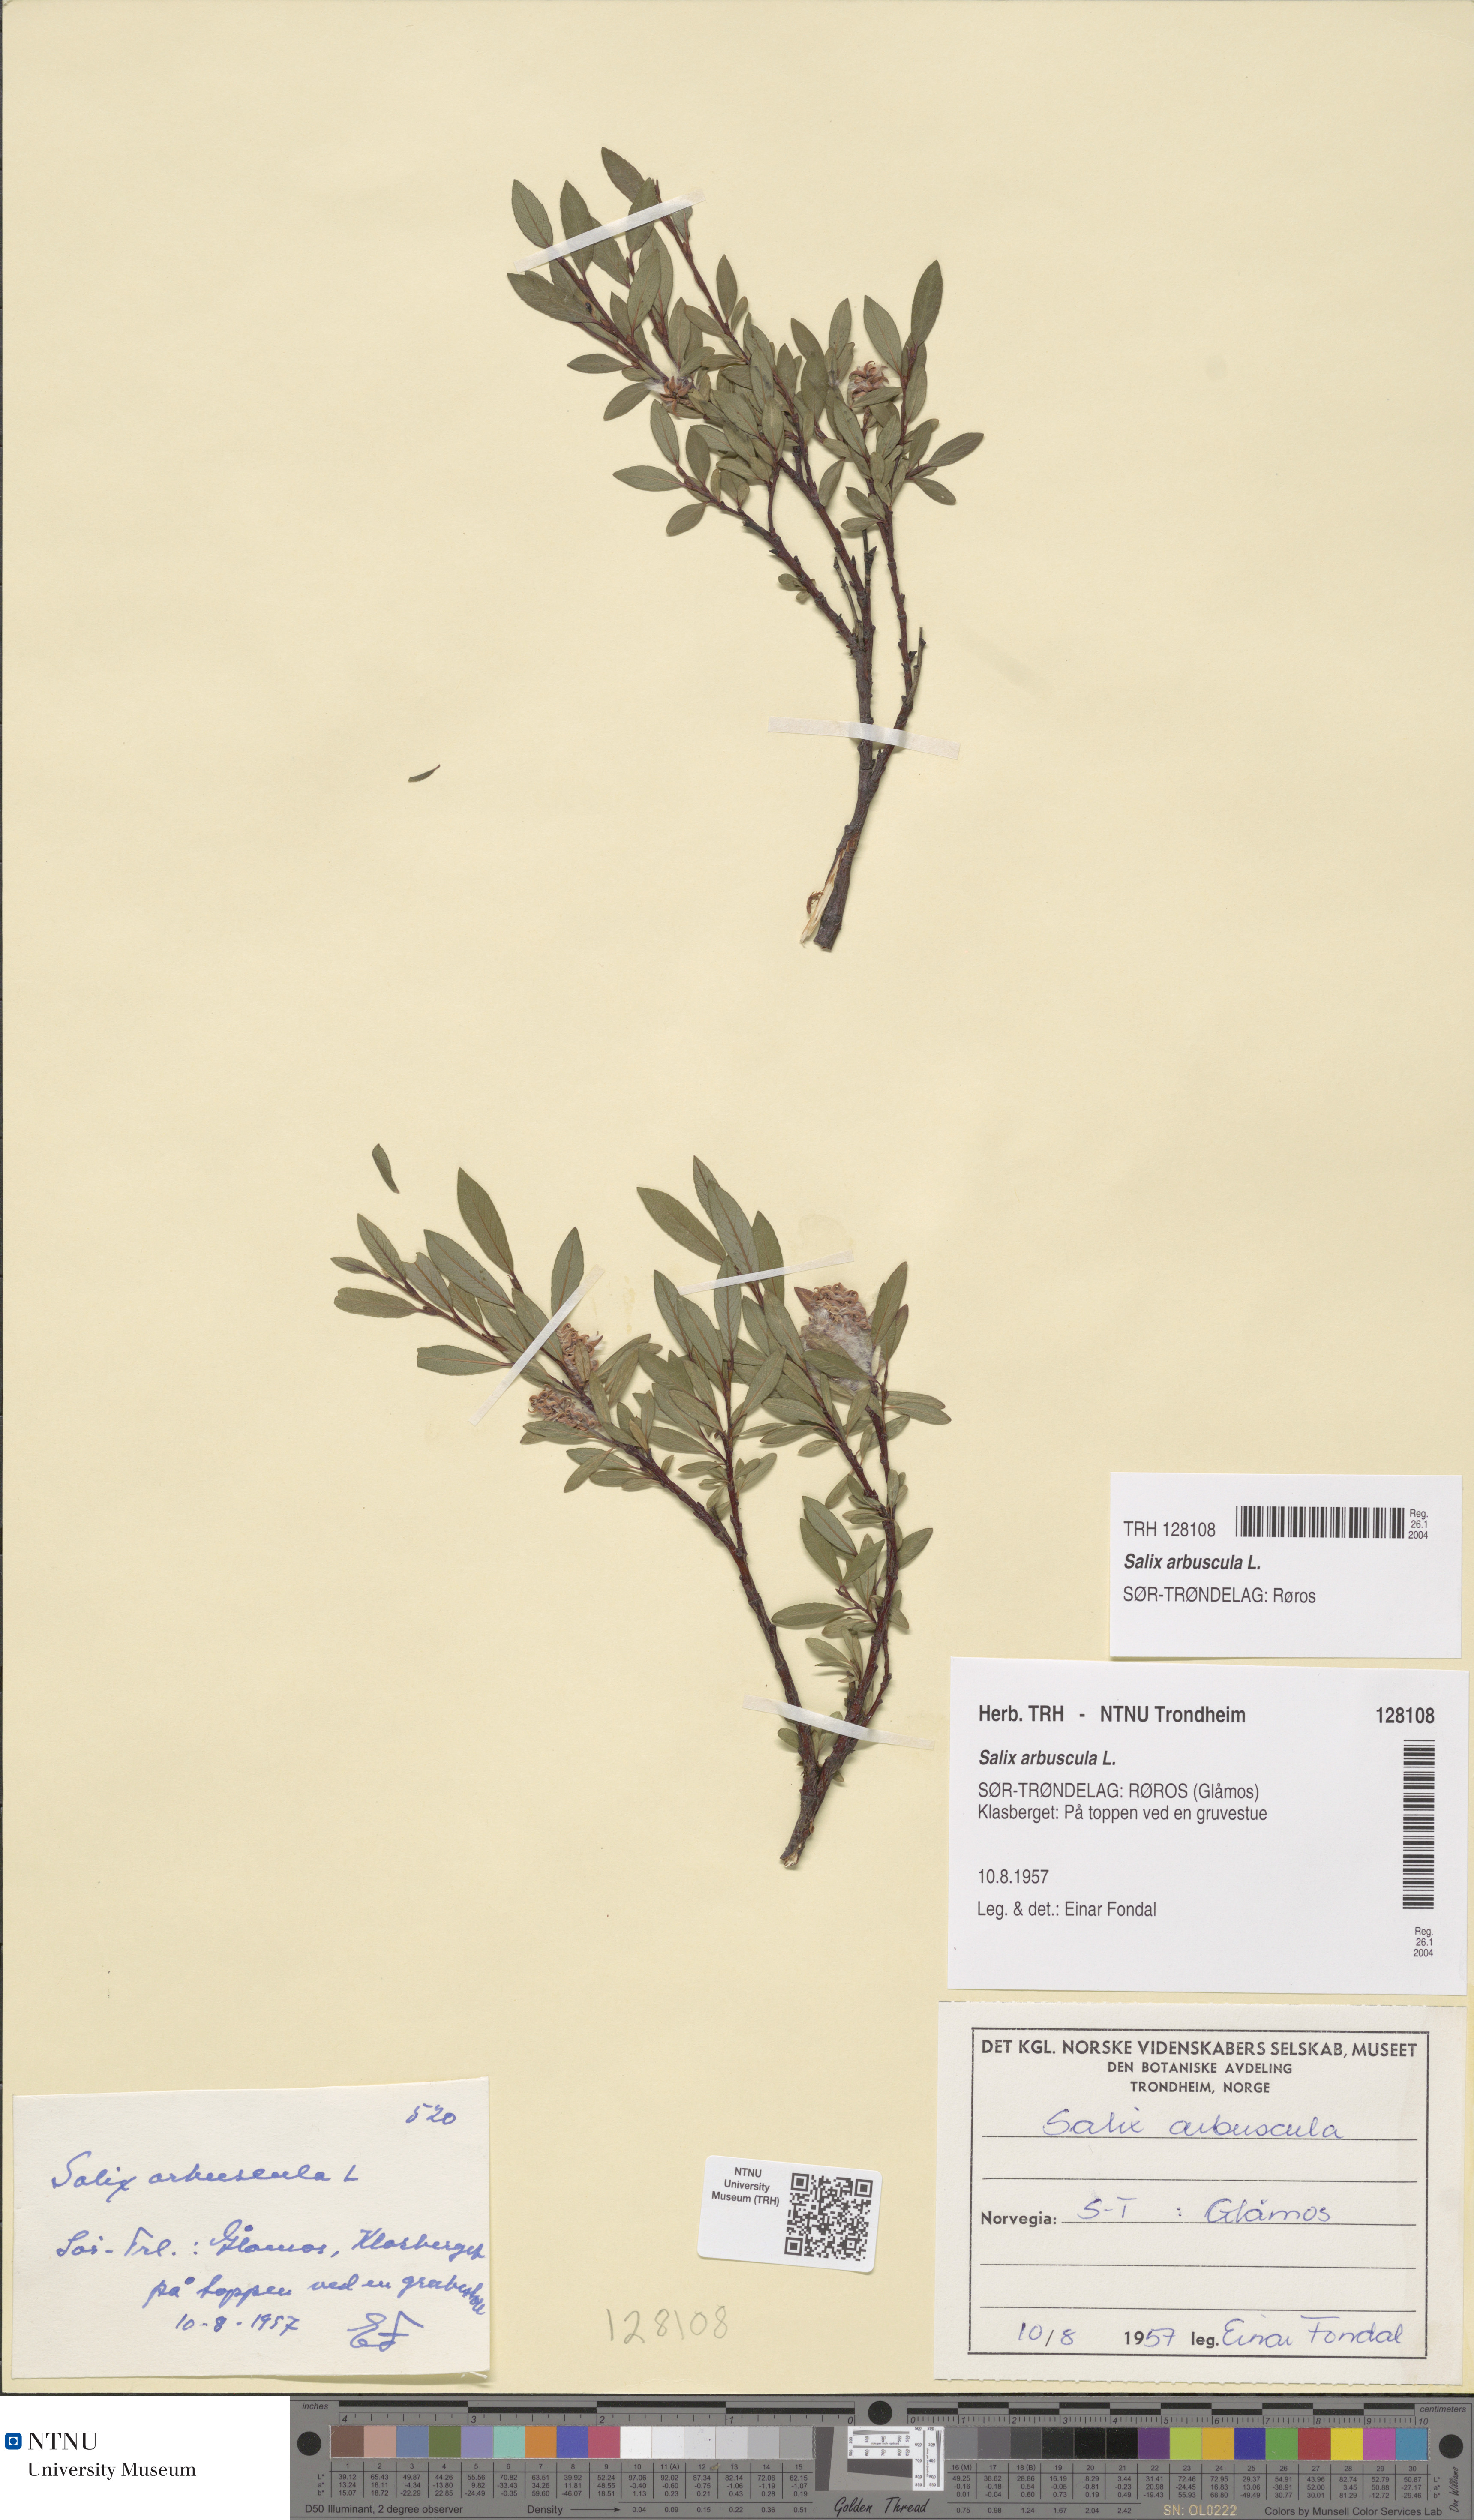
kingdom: Plantae
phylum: Tracheophyta
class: Magnoliopsida
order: Malpighiales
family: Salicaceae
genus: Salix
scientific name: Salix arbuscula
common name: Mountain willow
